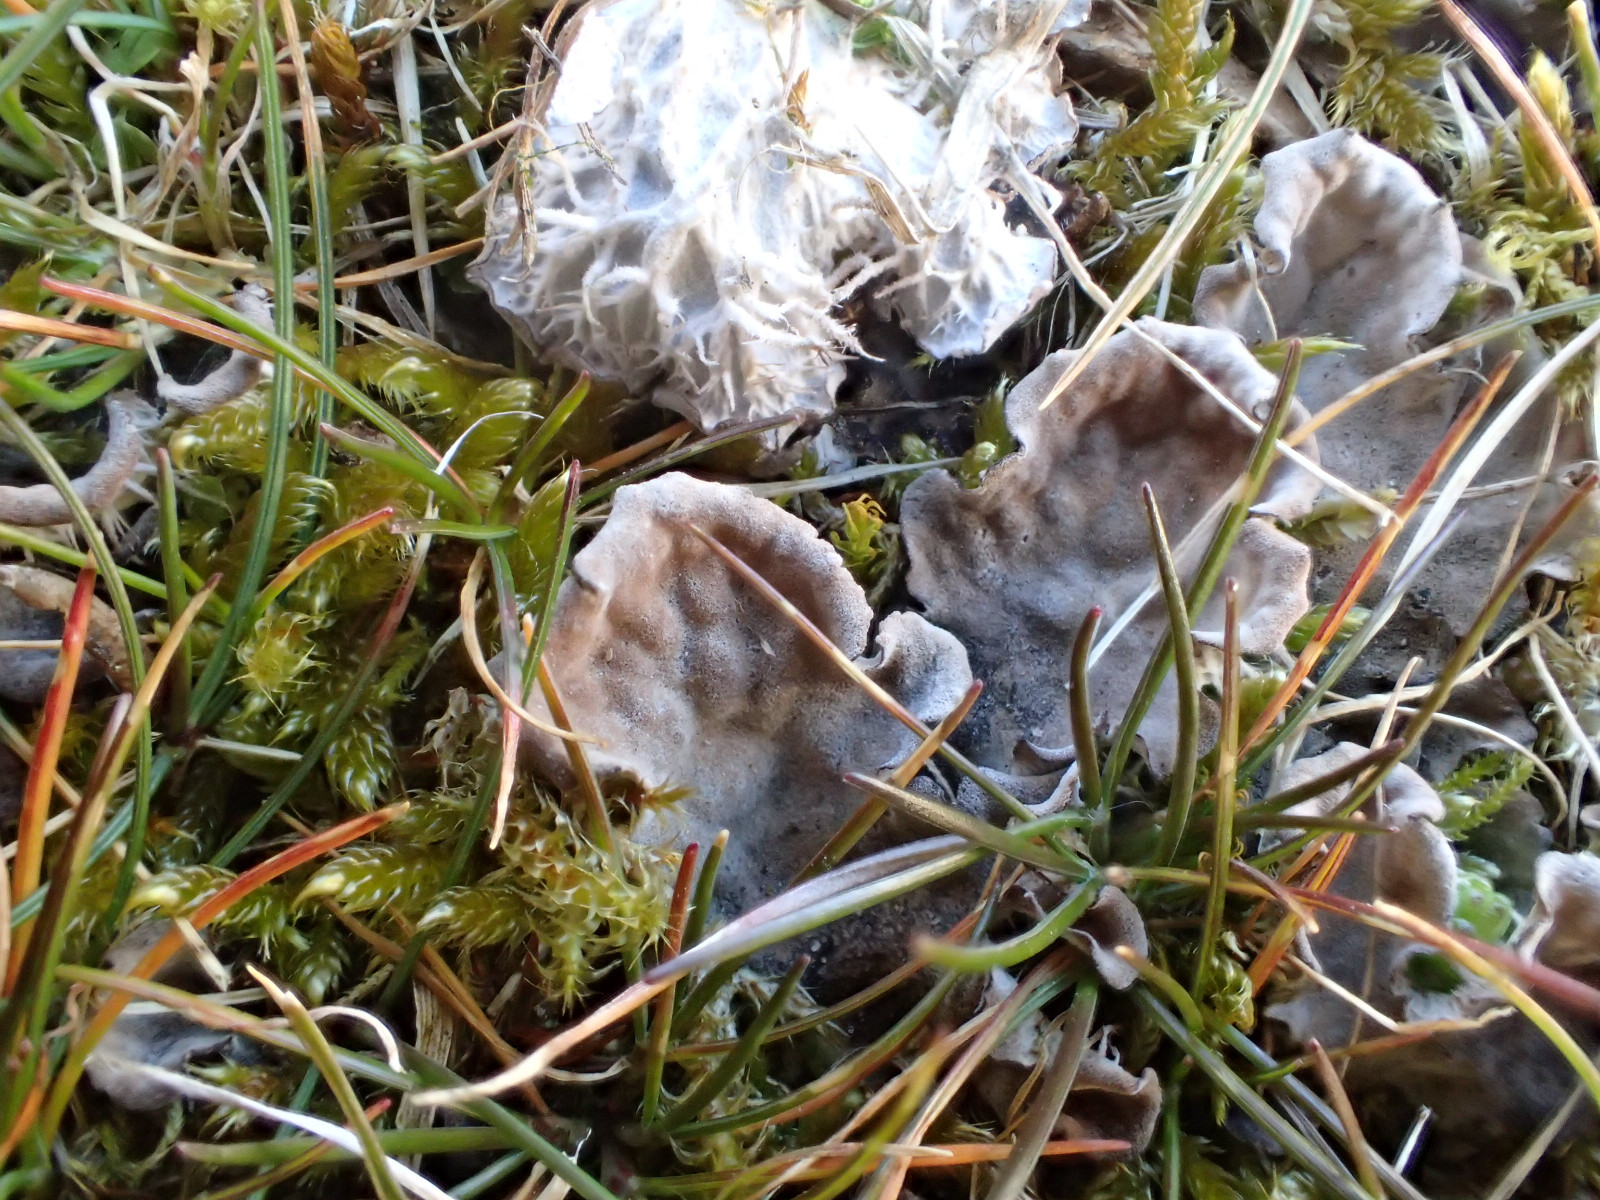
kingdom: Fungi
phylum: Ascomycota
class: Lecanoromycetes
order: Peltigerales
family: Peltigeraceae
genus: Peltigera
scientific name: Peltigera membranacea
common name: tynd skjoldlav
